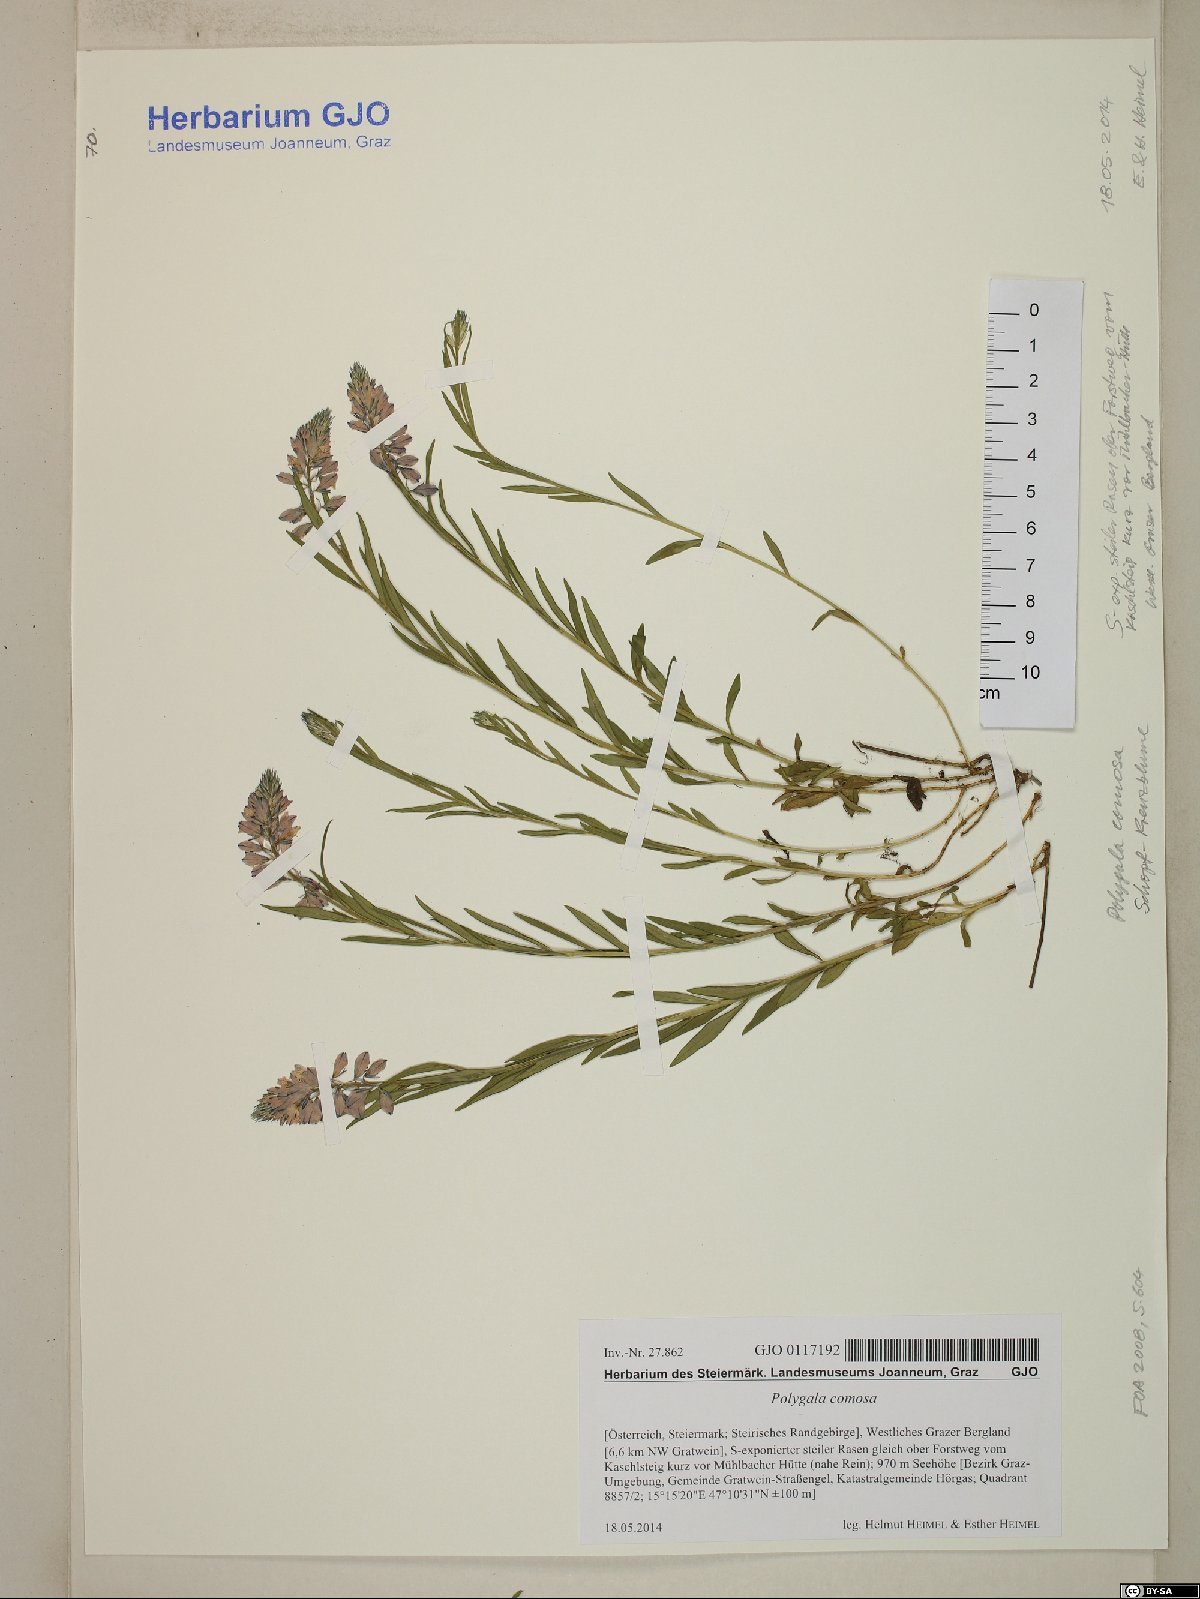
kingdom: Plantae
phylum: Tracheophyta
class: Magnoliopsida
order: Fabales
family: Polygalaceae
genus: Polygala
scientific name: Polygala comosa
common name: Tufted milkwort
